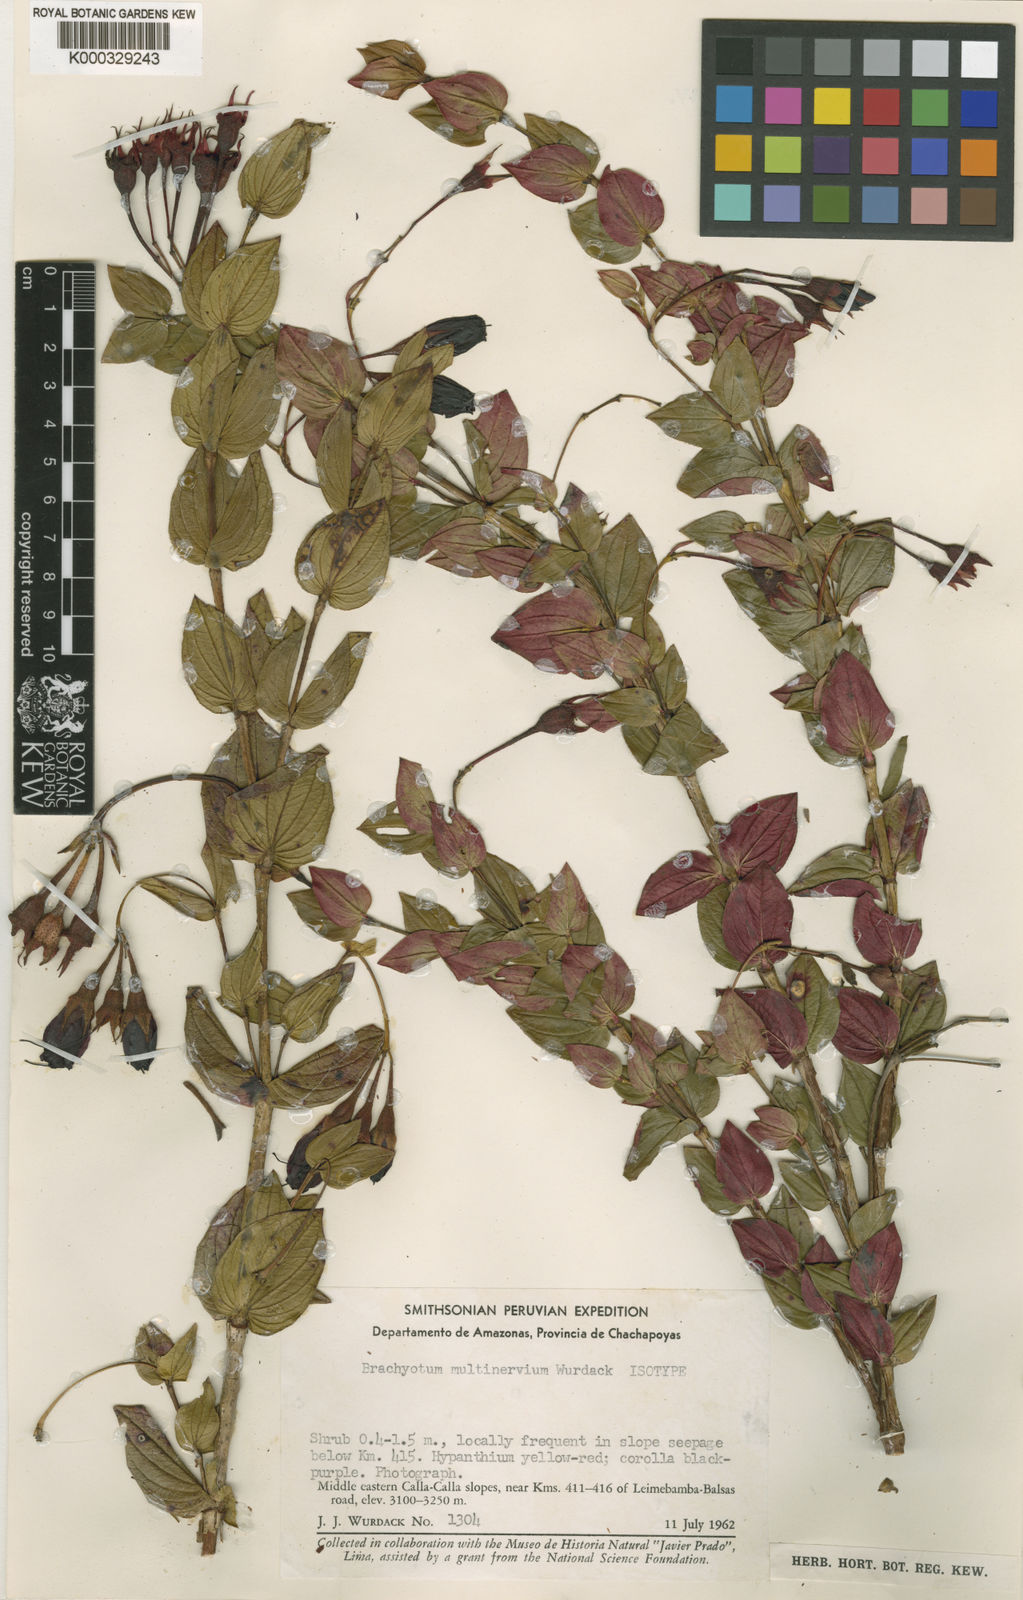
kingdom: Plantae
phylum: Tracheophyta
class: Magnoliopsida
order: Myrtales
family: Melastomataceae
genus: Brachyotum
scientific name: Brachyotum multinervium
